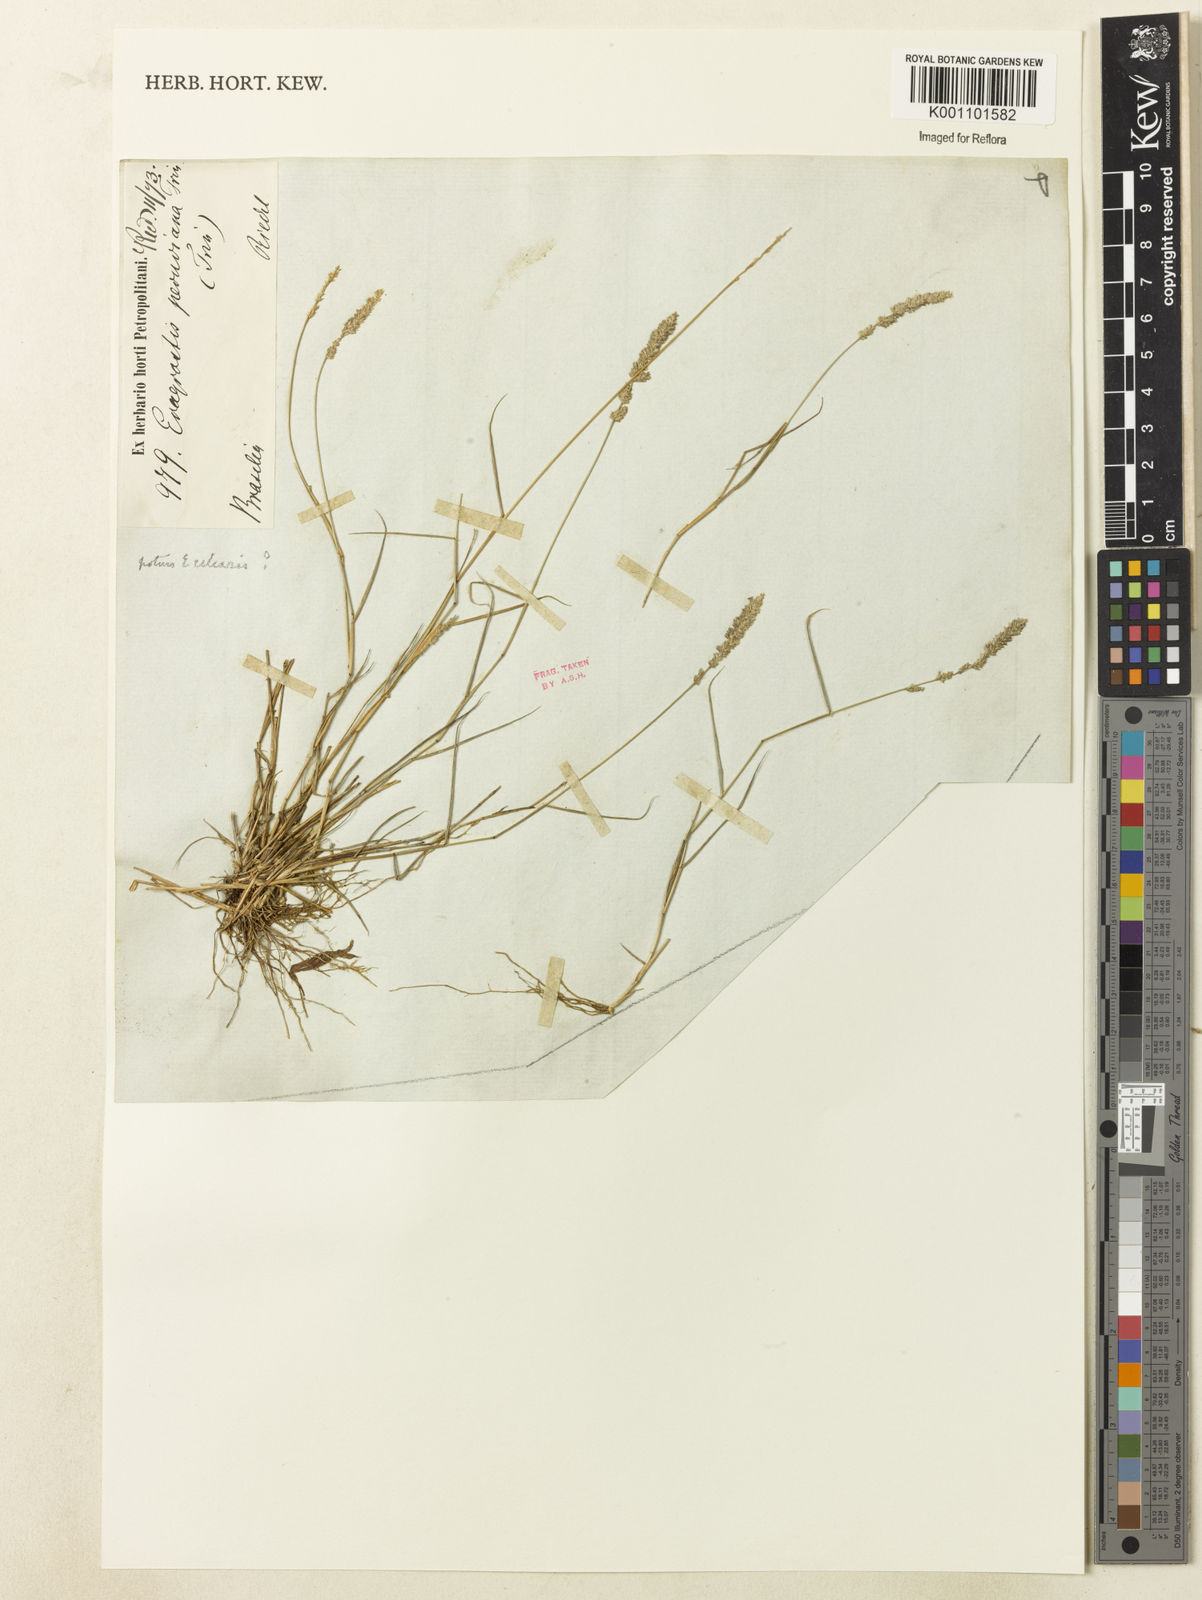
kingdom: Plantae
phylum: Tracheophyta
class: Liliopsida
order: Poales
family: Poaceae
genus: Eragrostis
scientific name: Eragrostis ciliaris
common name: Gophertail lovegrass
